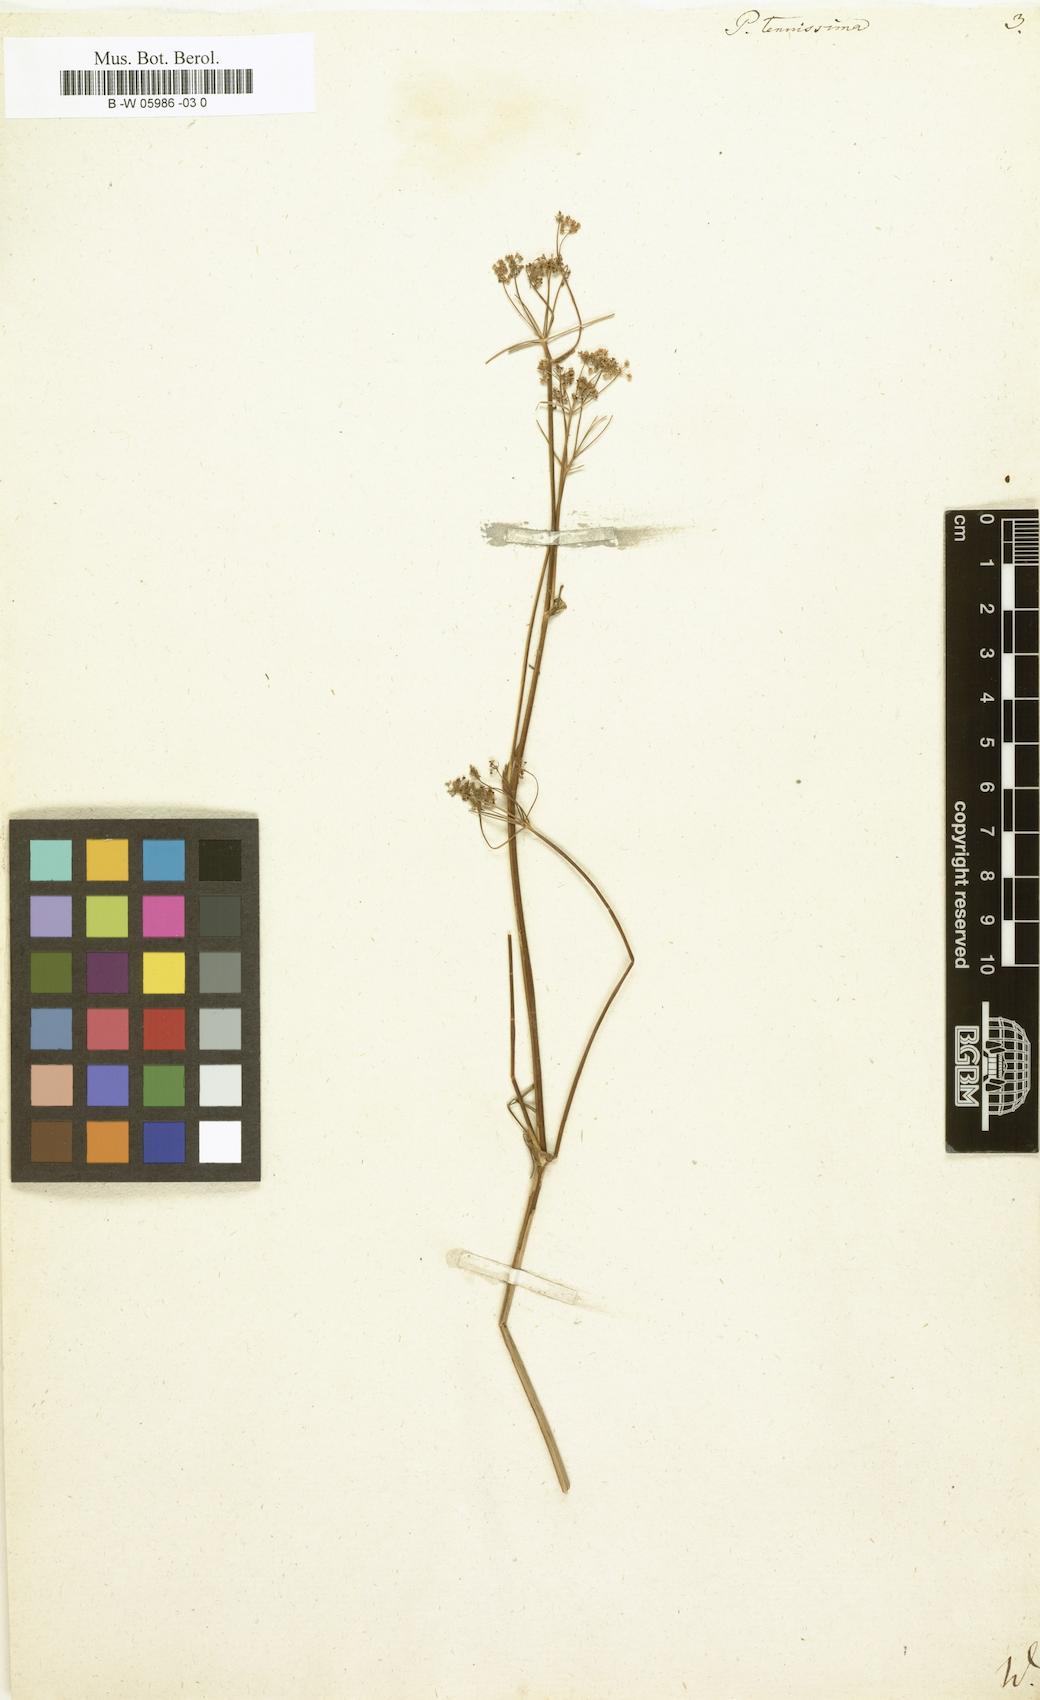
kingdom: Plantae
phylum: Tracheophyta
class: Magnoliopsida
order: Apiales
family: Apiaceae
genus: Pimpinella
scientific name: Pimpinella erythraeae
